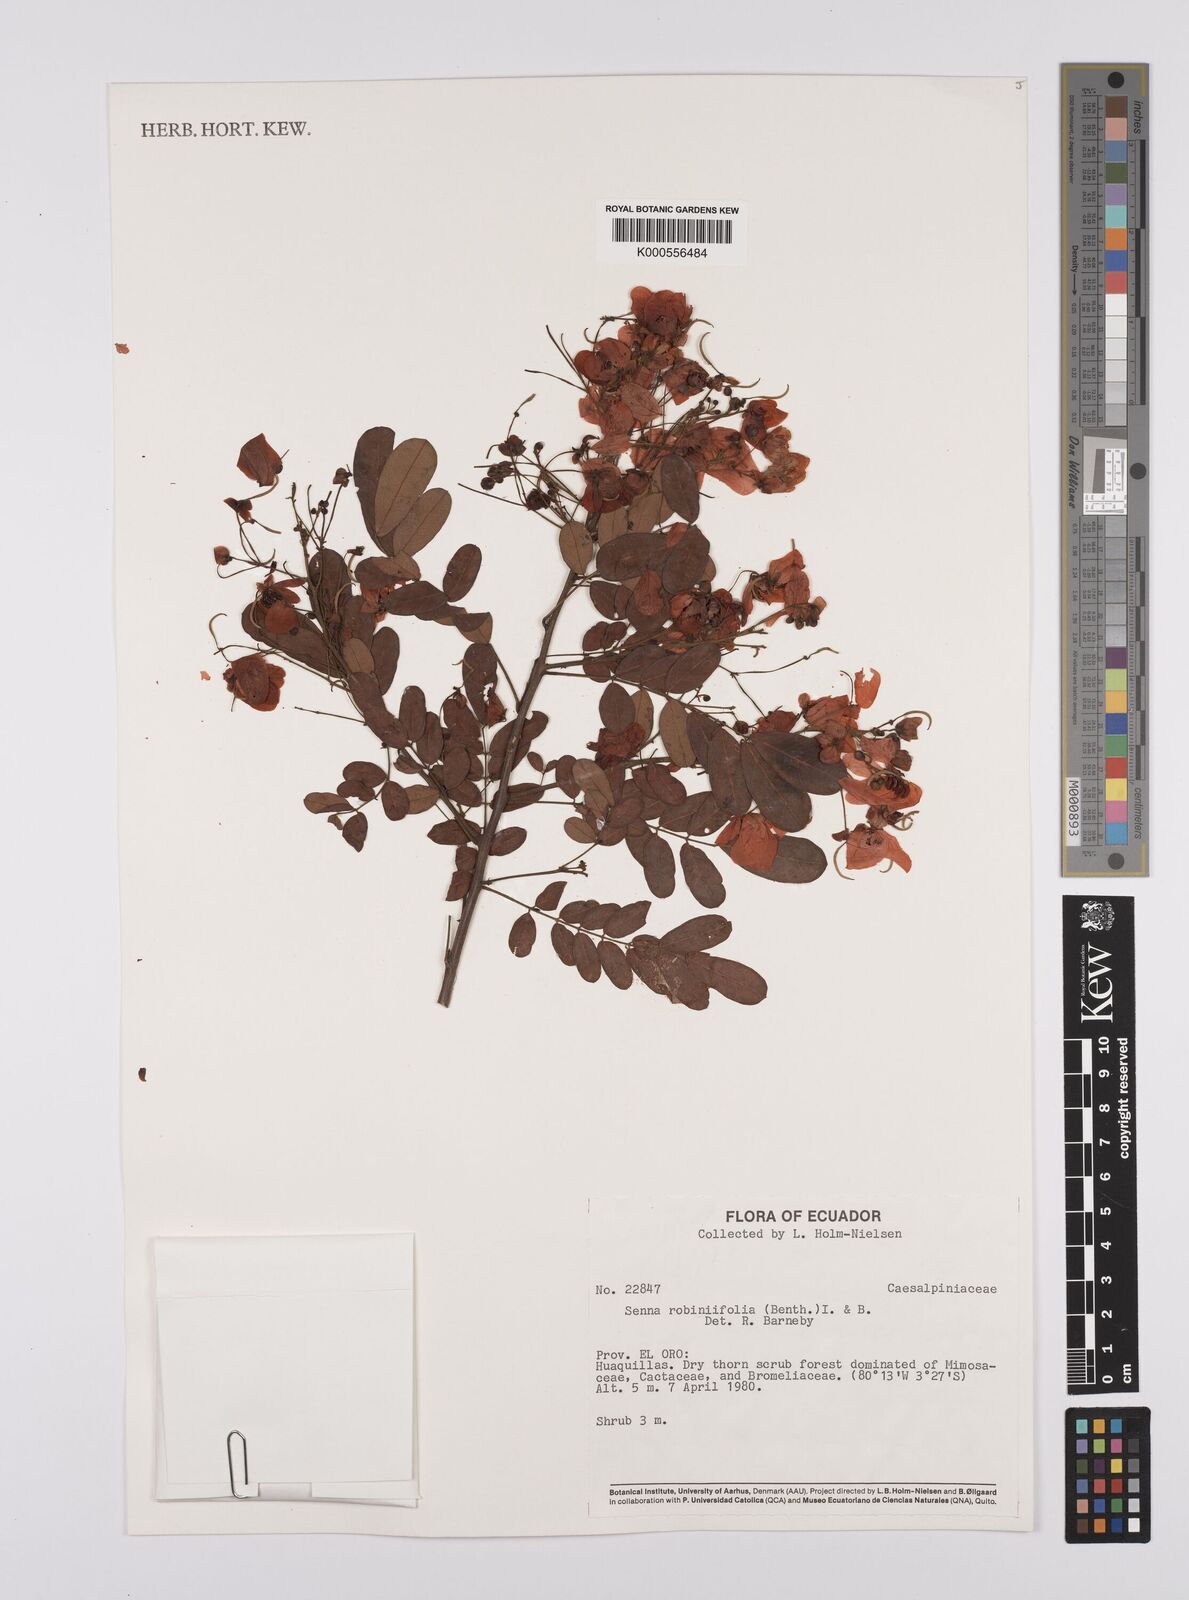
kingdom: Plantae
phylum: Tracheophyta
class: Magnoliopsida
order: Fabales
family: Fabaceae
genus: Senna
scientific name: Senna robiniifolia
